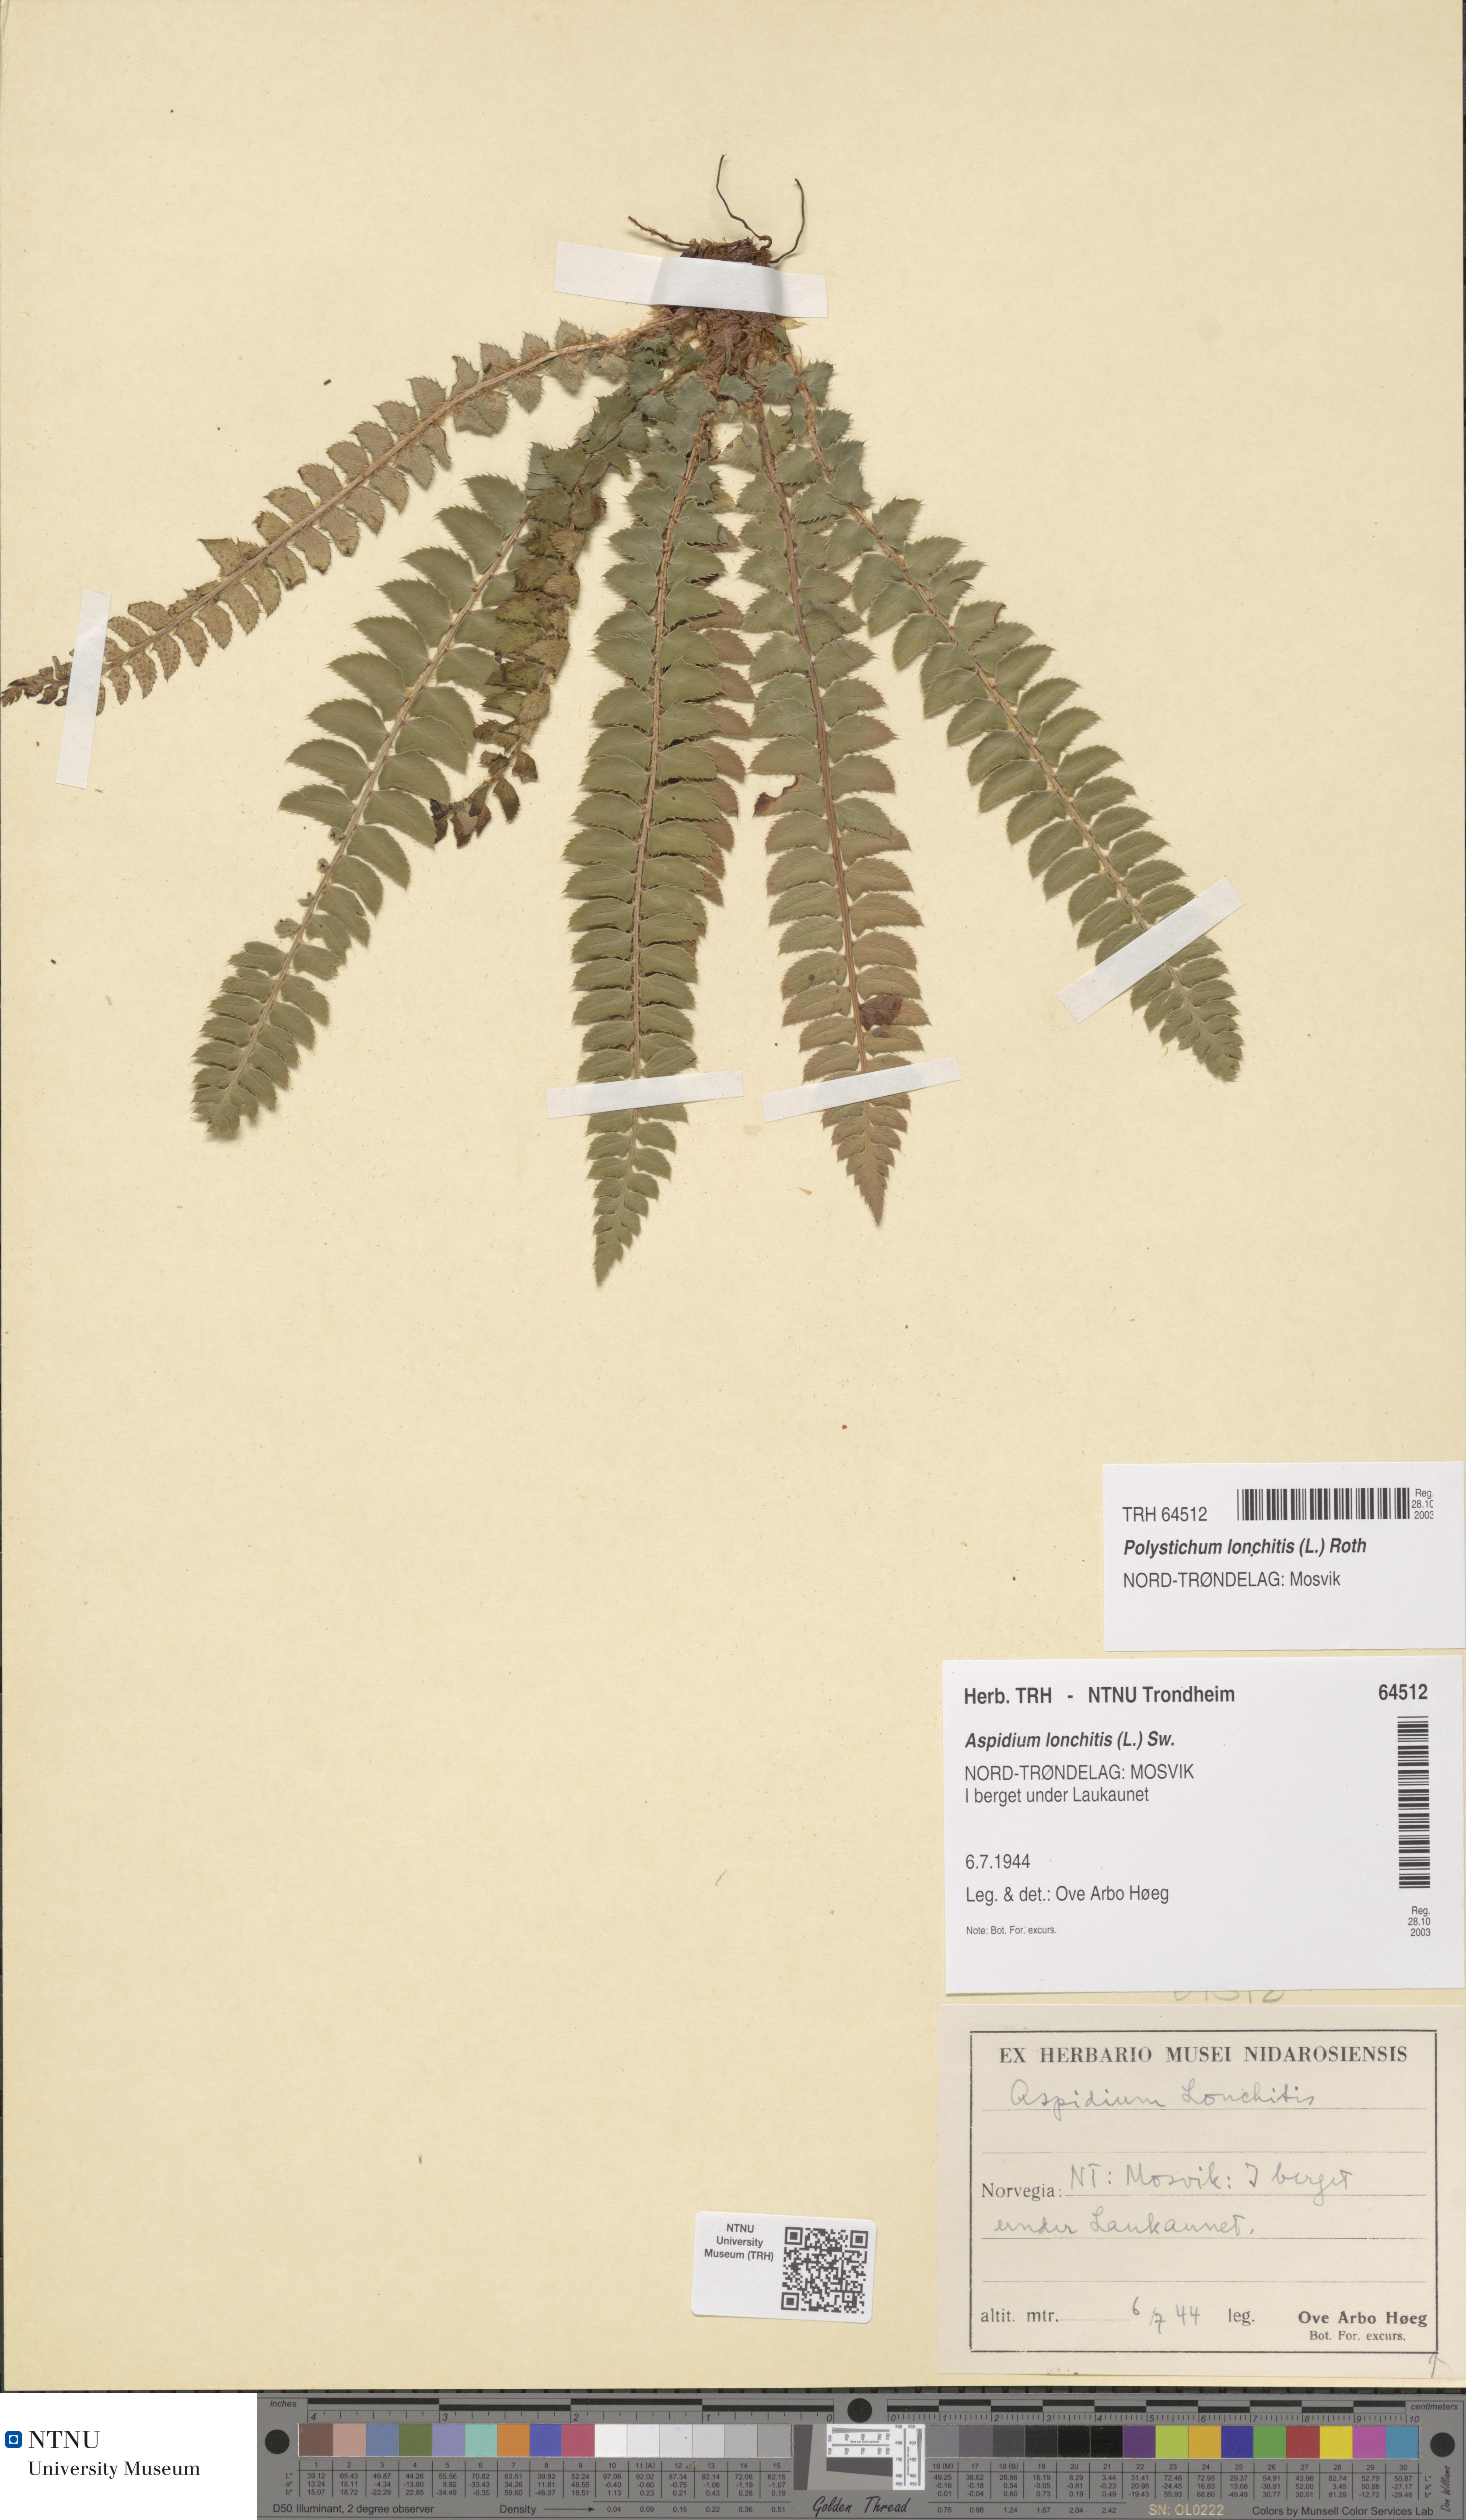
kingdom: Plantae
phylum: Tracheophyta
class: Polypodiopsida
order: Polypodiales
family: Dryopteridaceae
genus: Polystichum
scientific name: Polystichum lonchitis
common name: Holly fern
